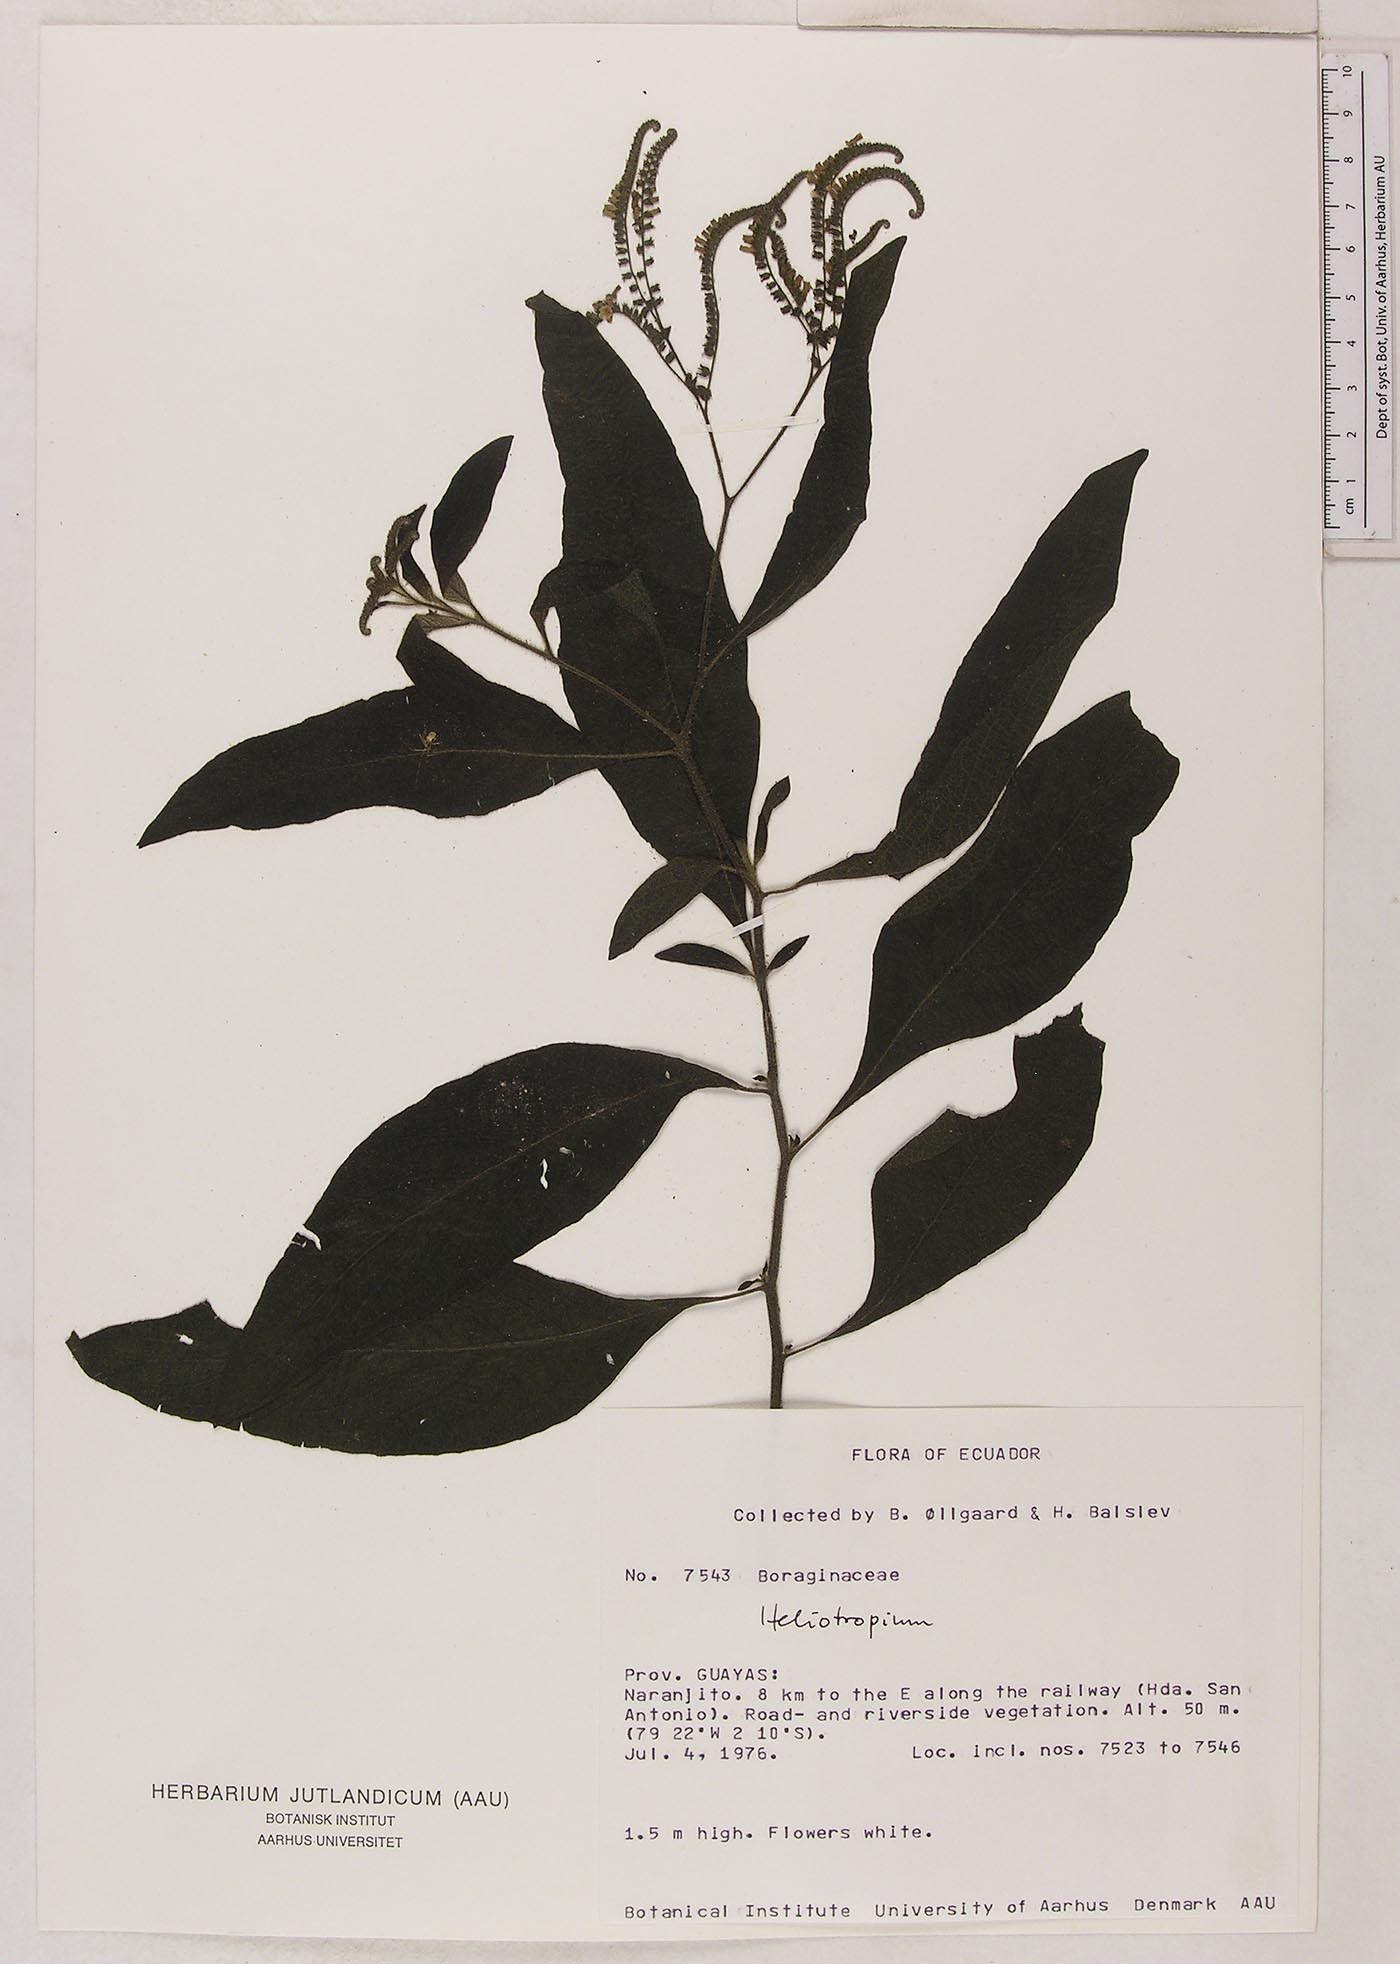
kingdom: Plantae
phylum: Tracheophyta
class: Magnoliopsida
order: Boraginales
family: Heliotropiaceae
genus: Heliotropium
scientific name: Heliotropium rufipilum
